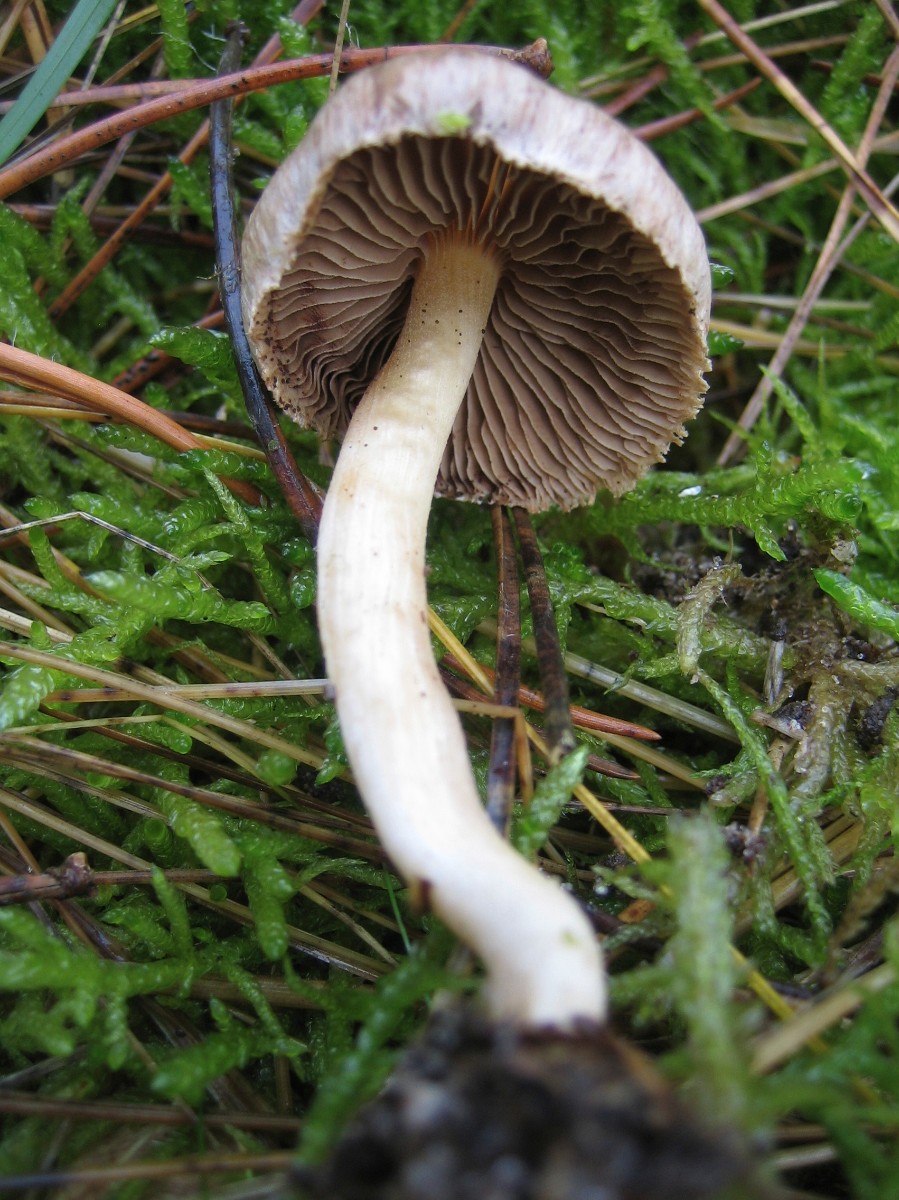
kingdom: Fungi
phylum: Basidiomycota
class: Agaricomycetes
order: Agaricales
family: Inocybaceae
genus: Inocybe
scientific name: Inocybe
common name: trævlhat
